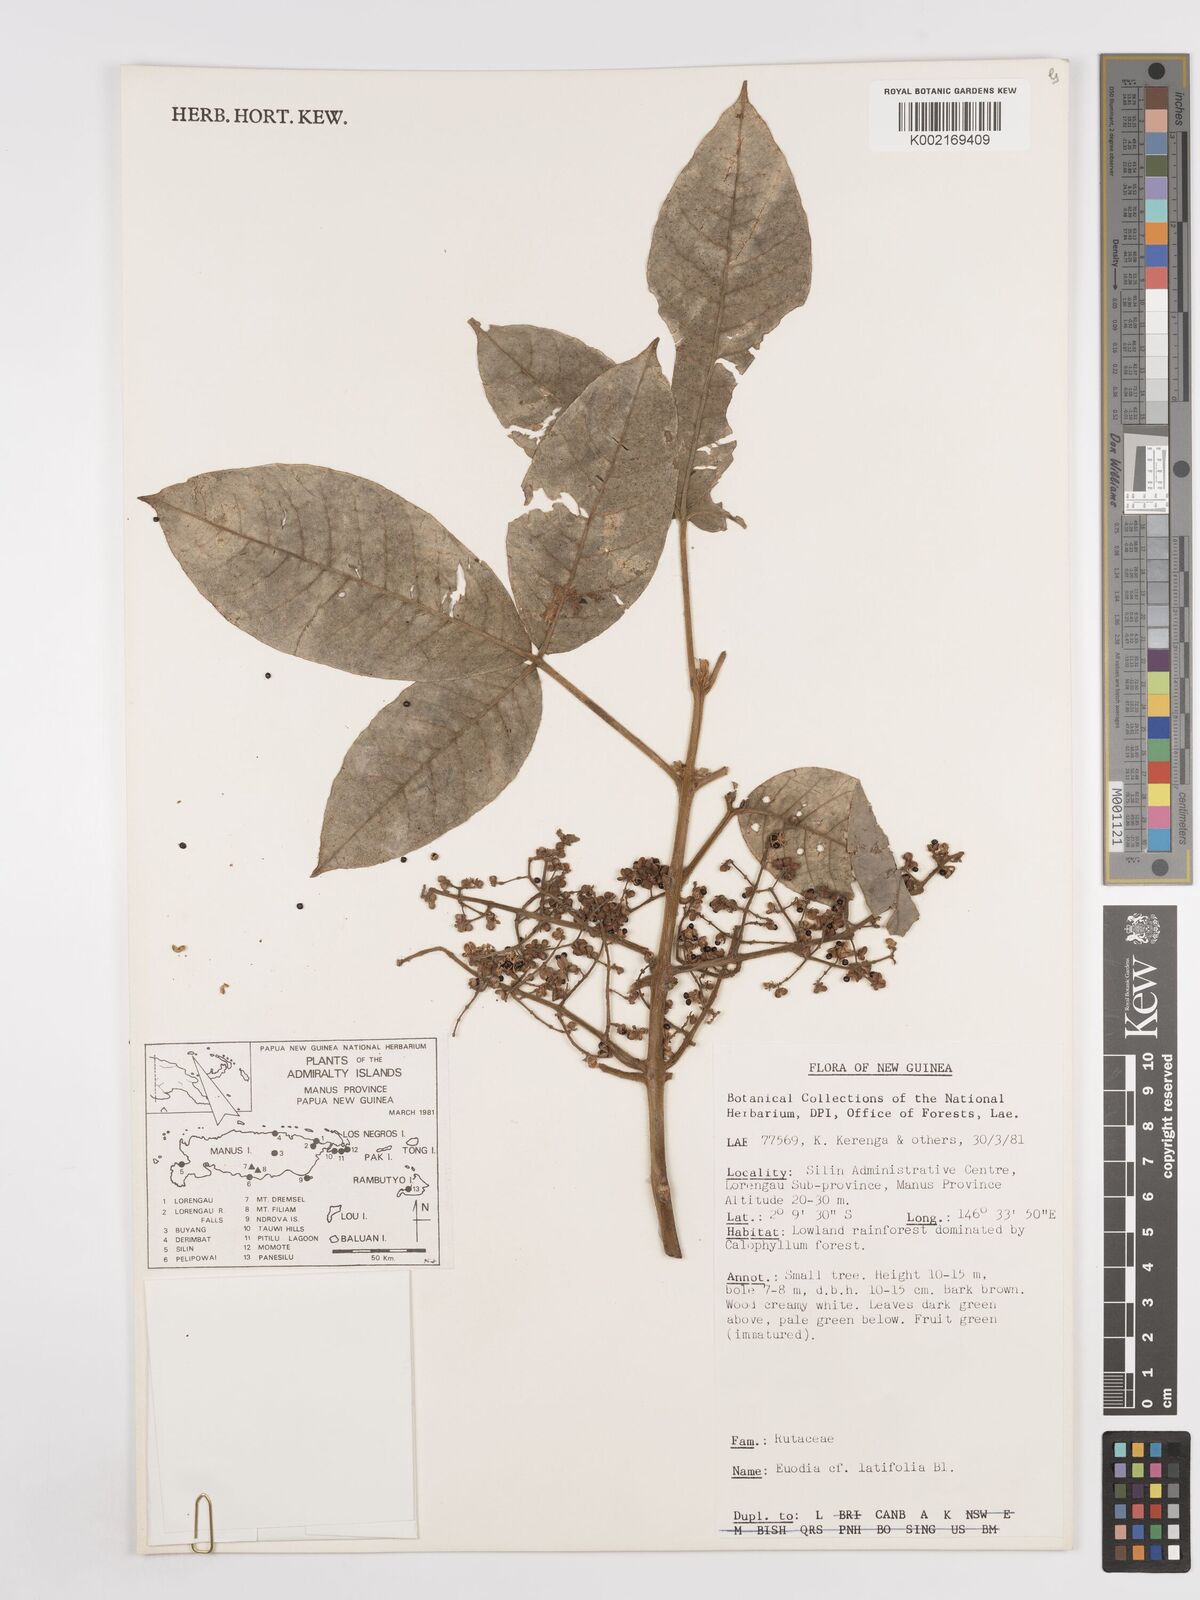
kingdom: Plantae
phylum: Tracheophyta
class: Magnoliopsida
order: Sapindales
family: Rutaceae
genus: Melicope
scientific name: Melicope latifolia
